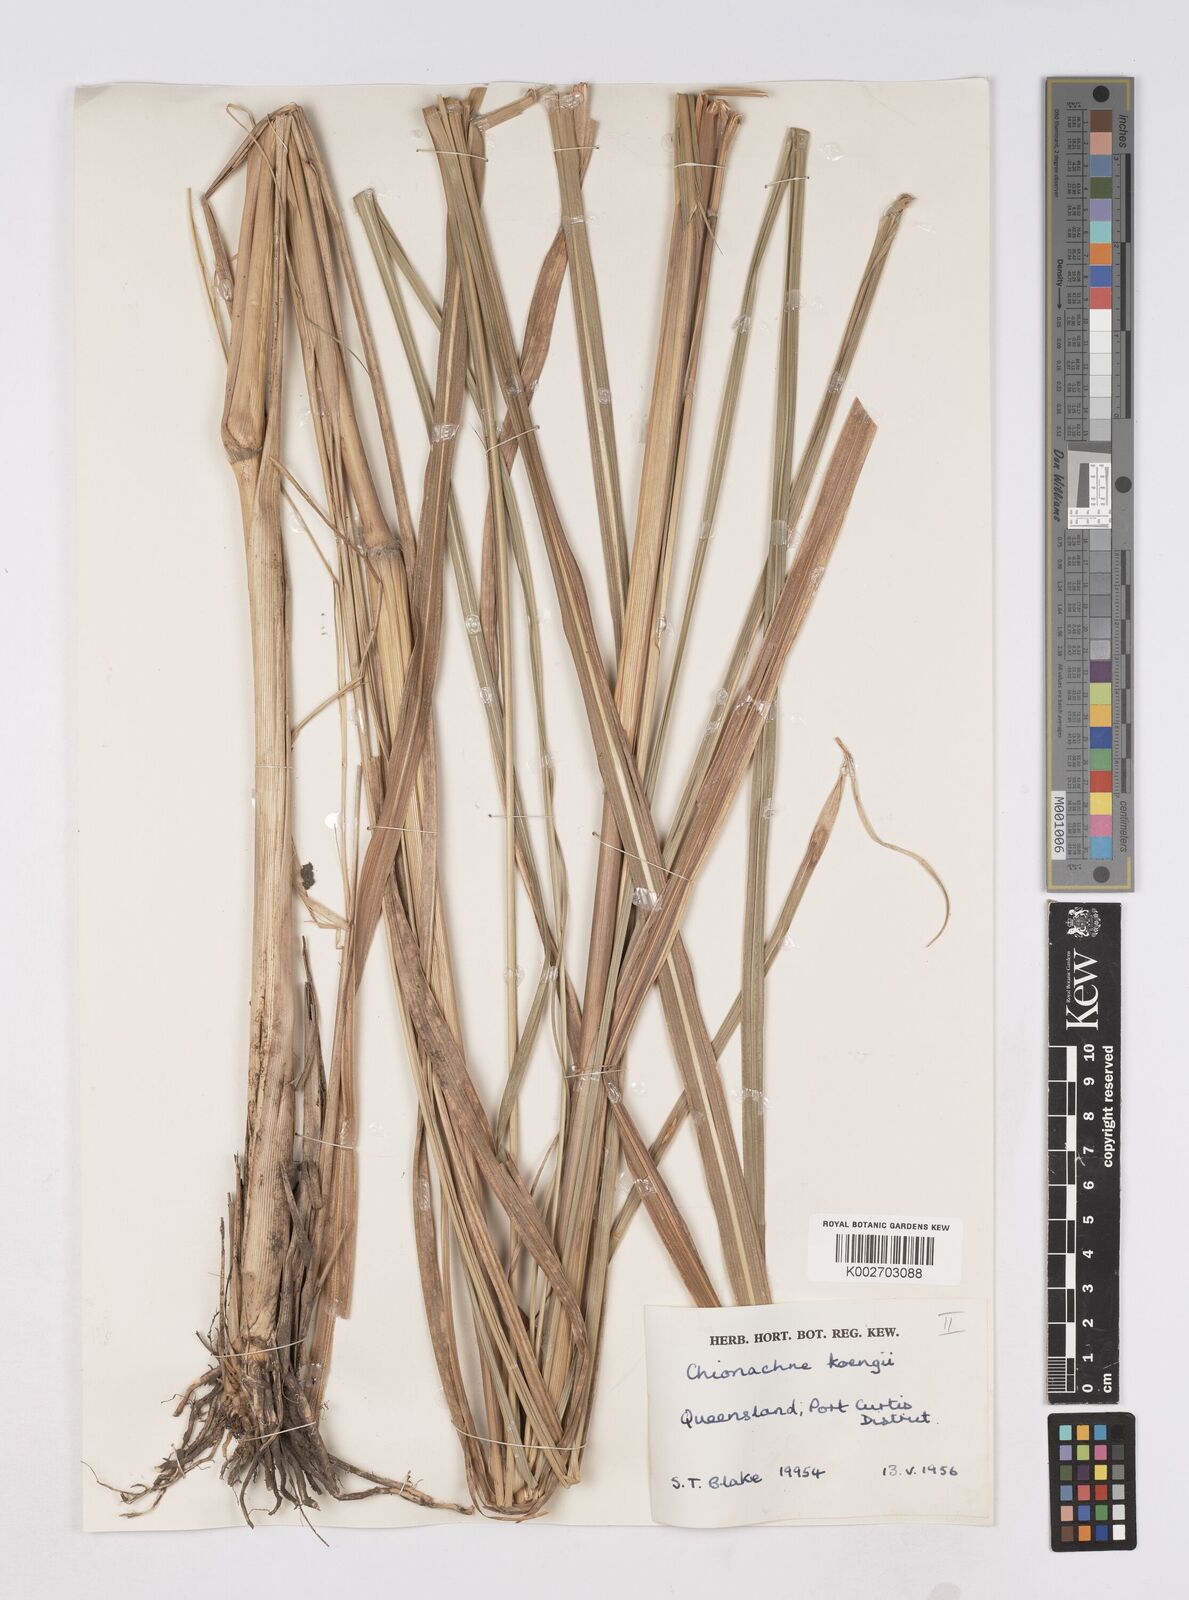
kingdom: Plantae
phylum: Tracheophyta
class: Liliopsida
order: Poales
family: Poaceae
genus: Polytoca
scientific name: Polytoca
